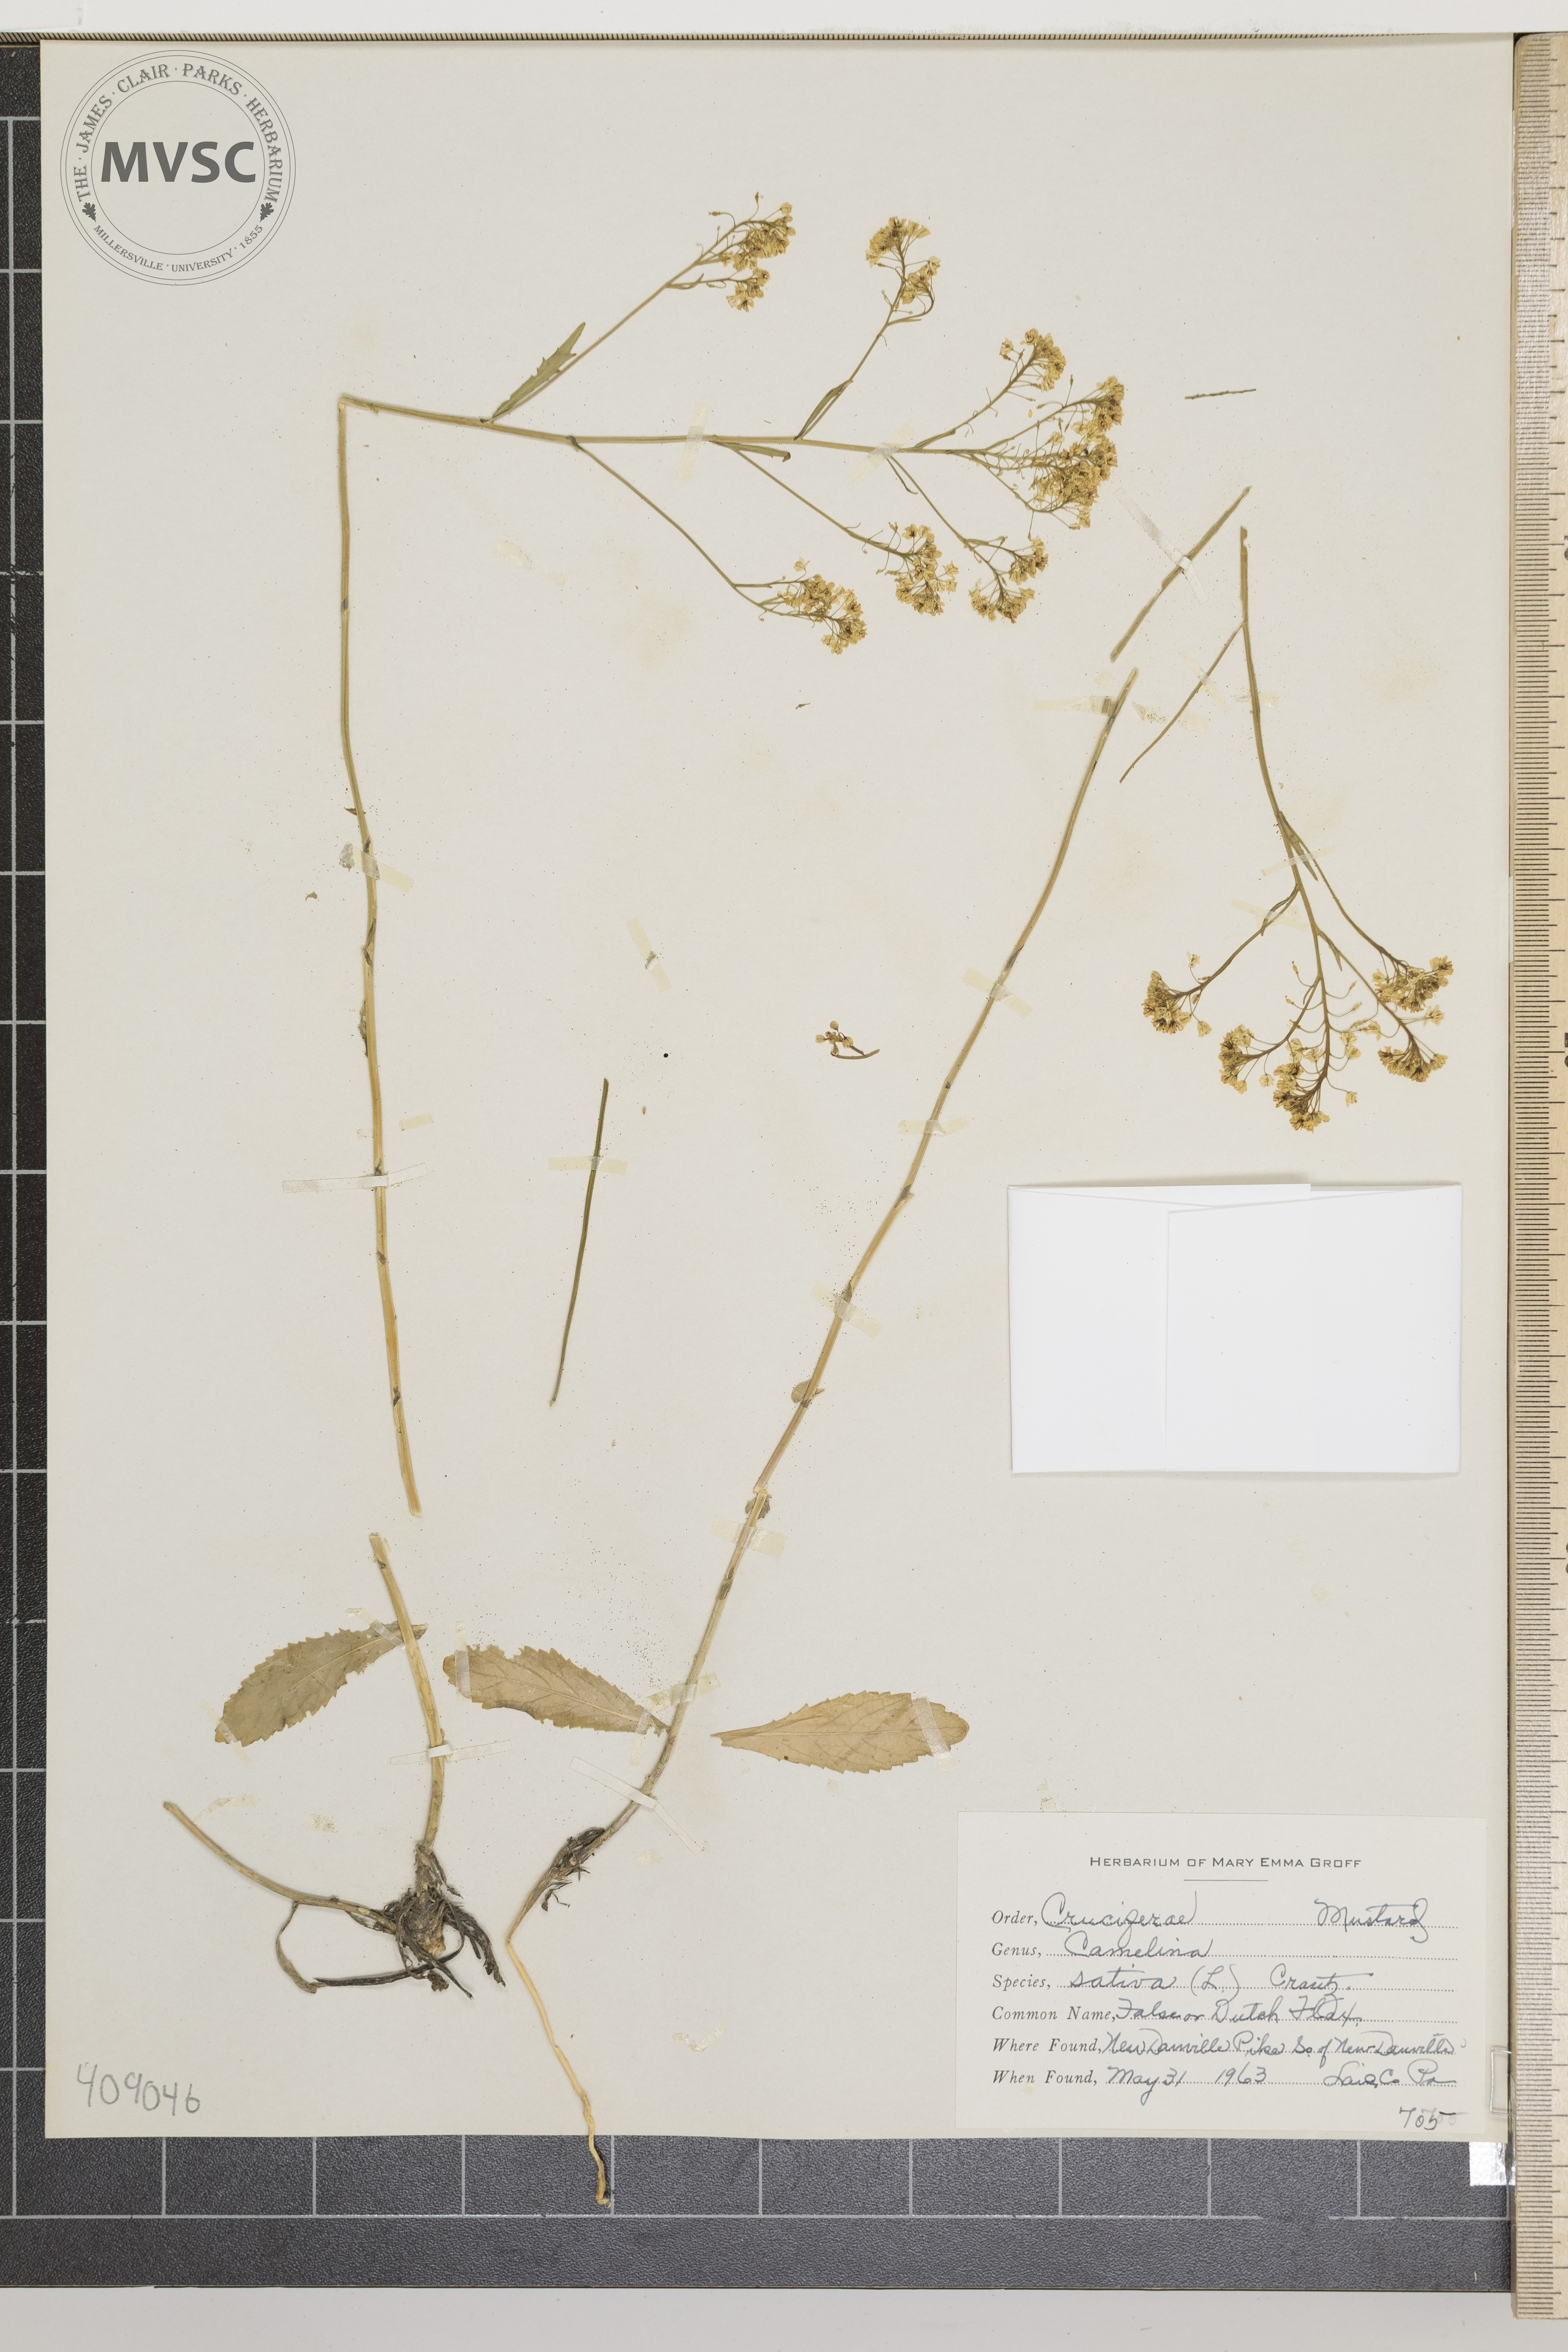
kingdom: Plantae
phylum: Tracheophyta
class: Magnoliopsida
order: Brassicales
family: Brassicaceae
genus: Camelina
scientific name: Camelina sativa
